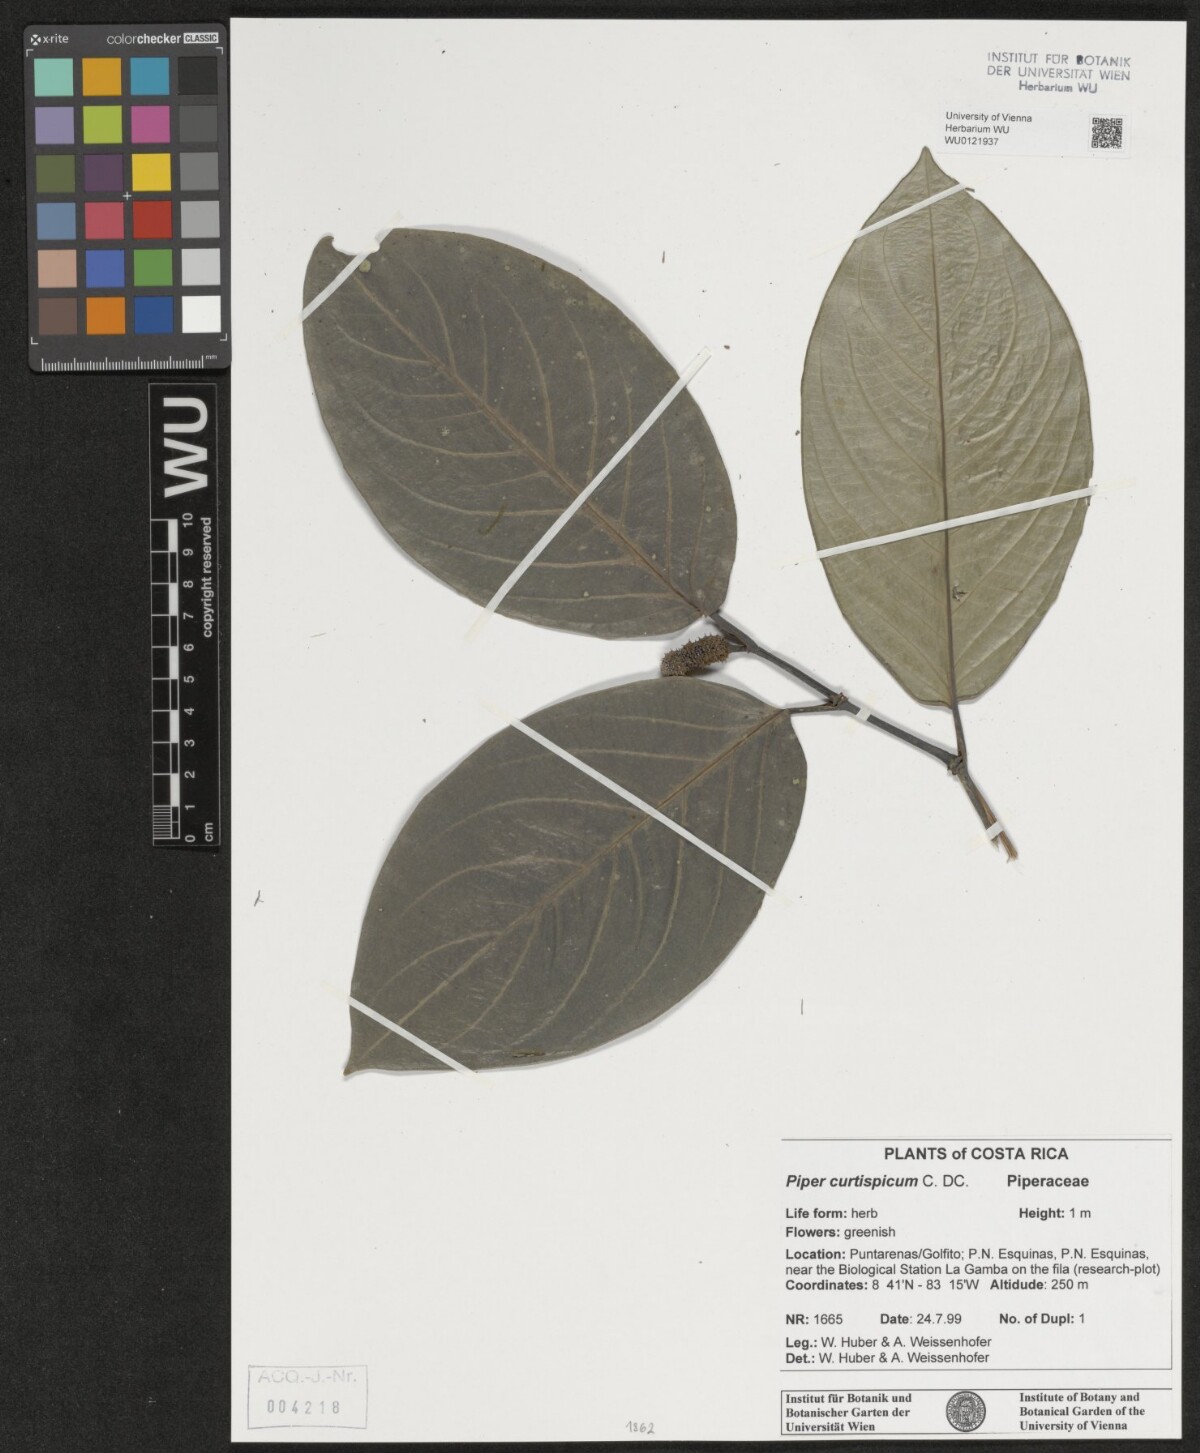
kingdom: Plantae
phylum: Tracheophyta
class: Magnoliopsida
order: Piperales
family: Piperaceae
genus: Piper
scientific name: Piper curtispicum
